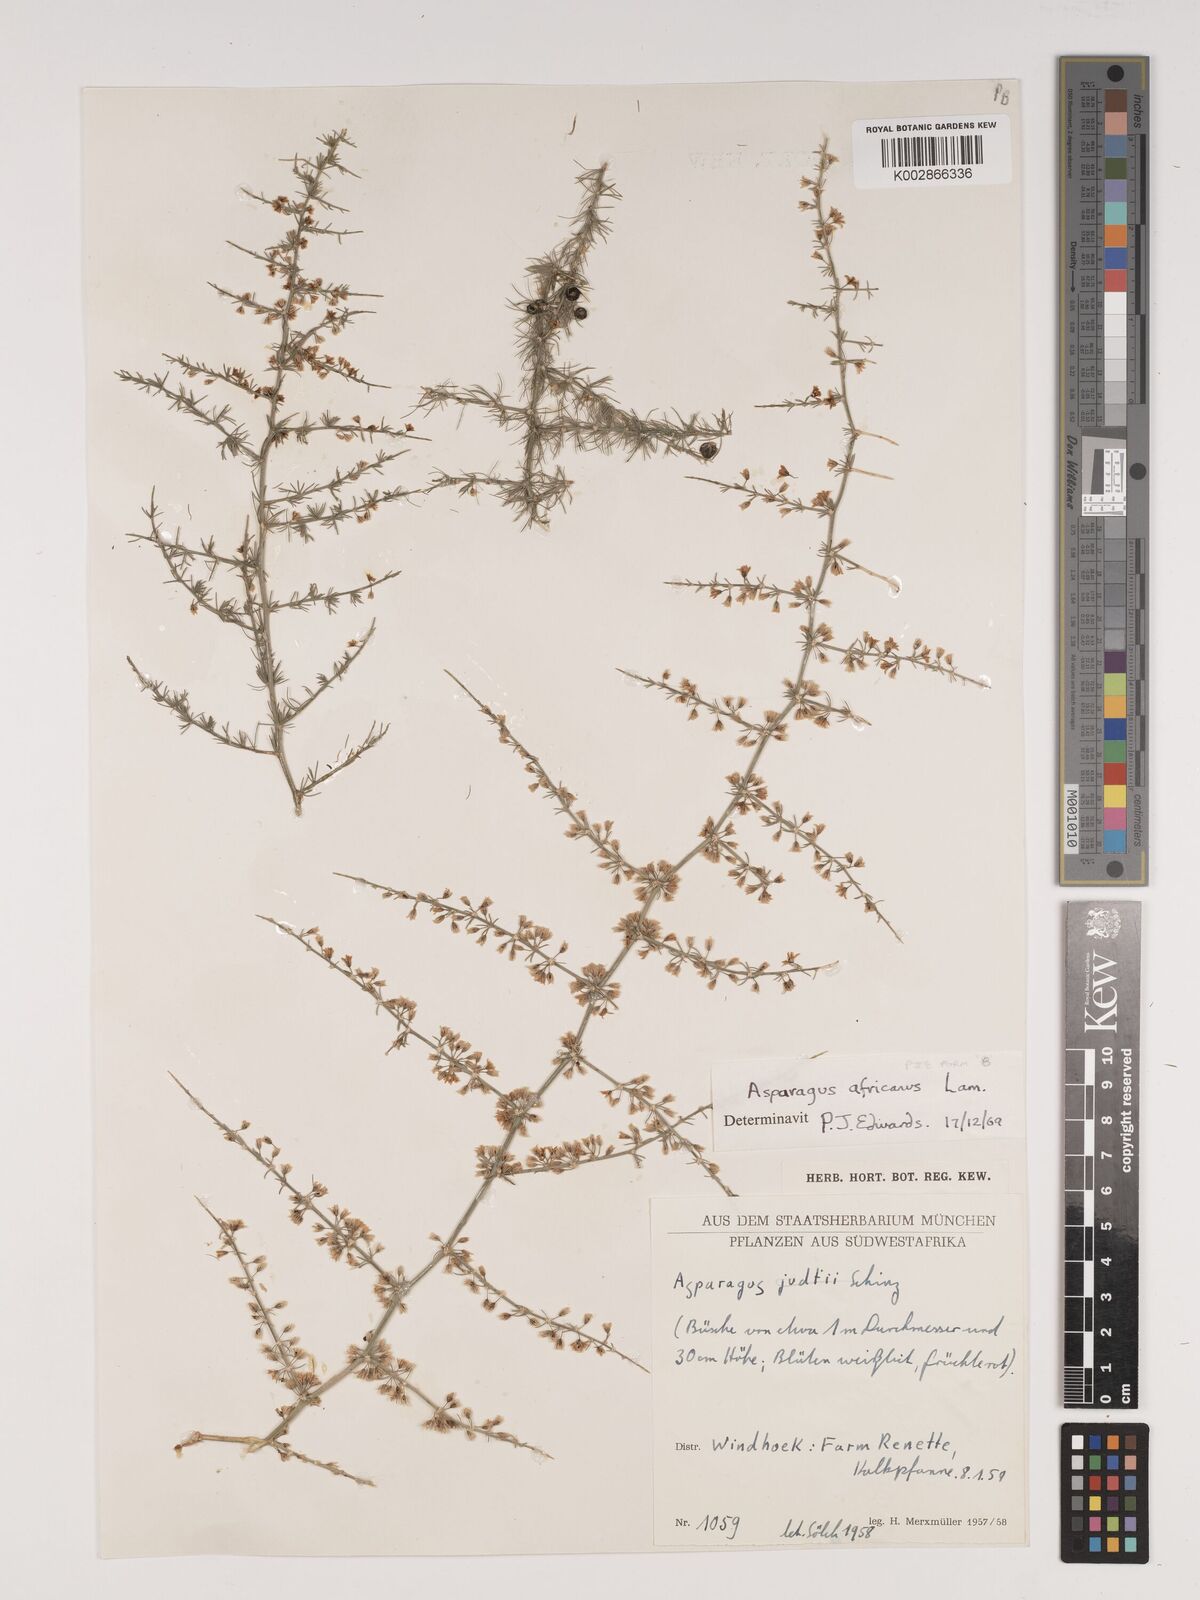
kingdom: Plantae
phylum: Tracheophyta
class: Liliopsida
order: Asparagales
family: Asparagaceae
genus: Asparagus
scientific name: Asparagus africanus
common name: Asparagus-fern
